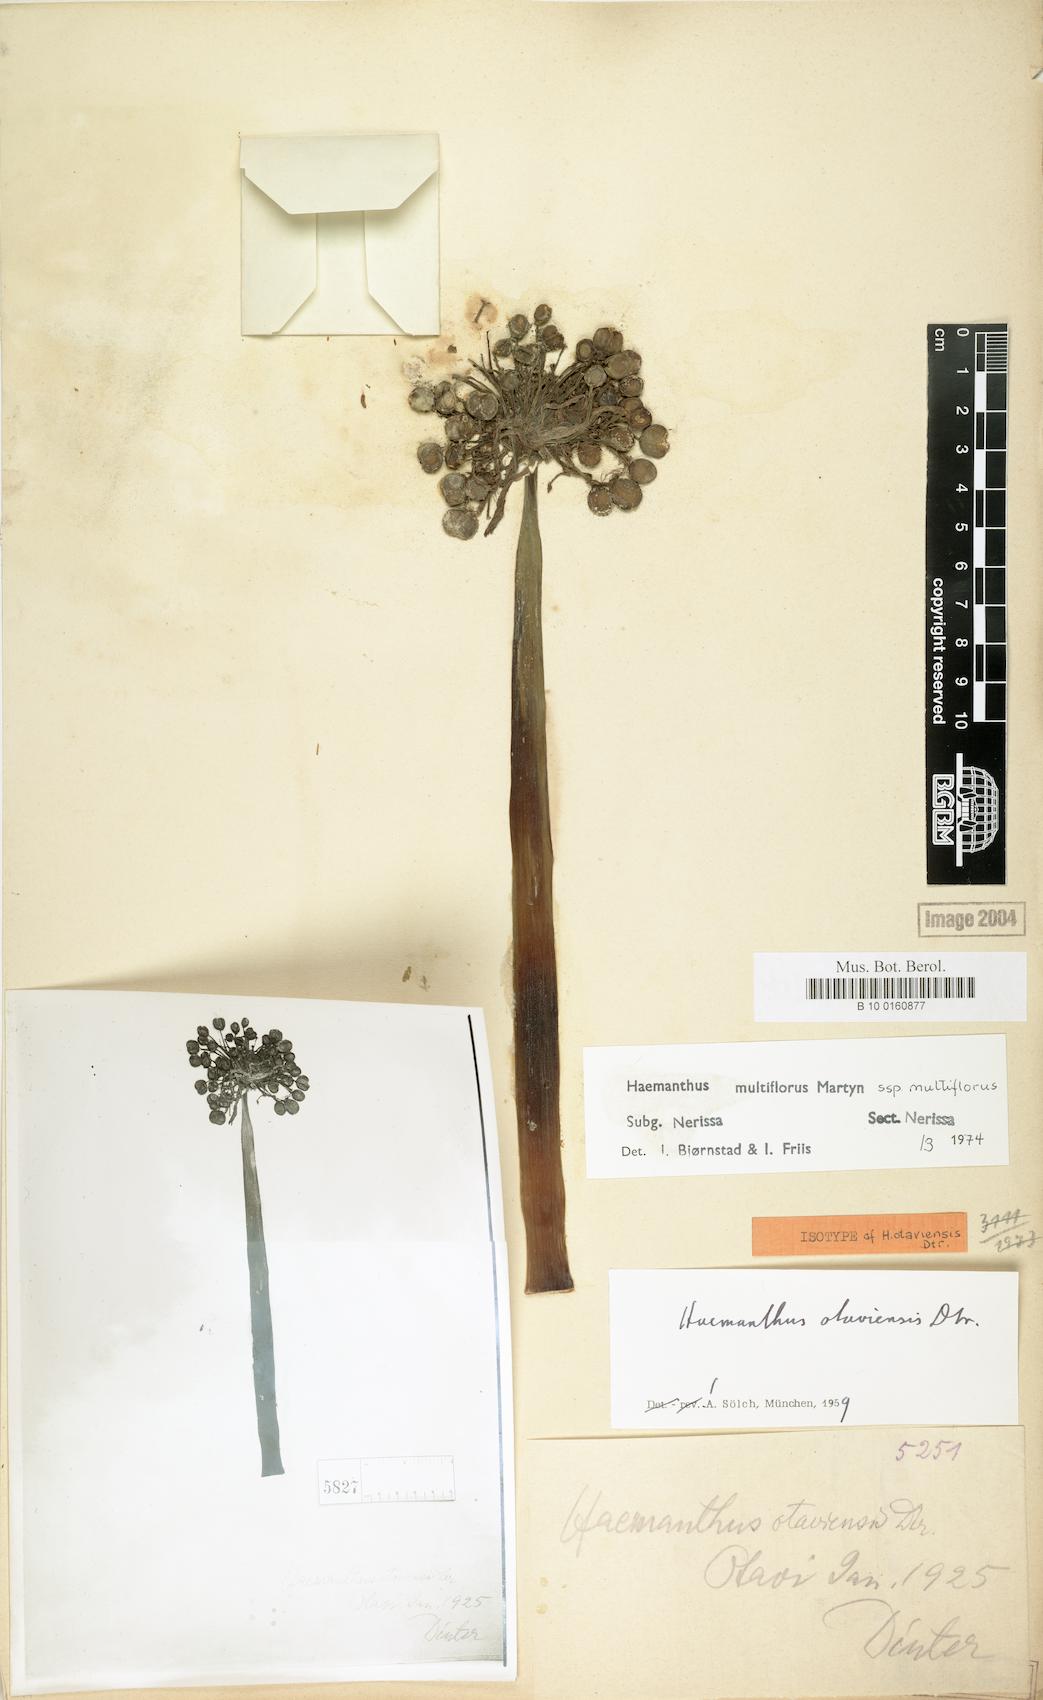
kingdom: Plantae
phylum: Tracheophyta
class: Liliopsida
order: Asparagales
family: Amaryllidaceae
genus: Scadoxus
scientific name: Scadoxus multiflorus
